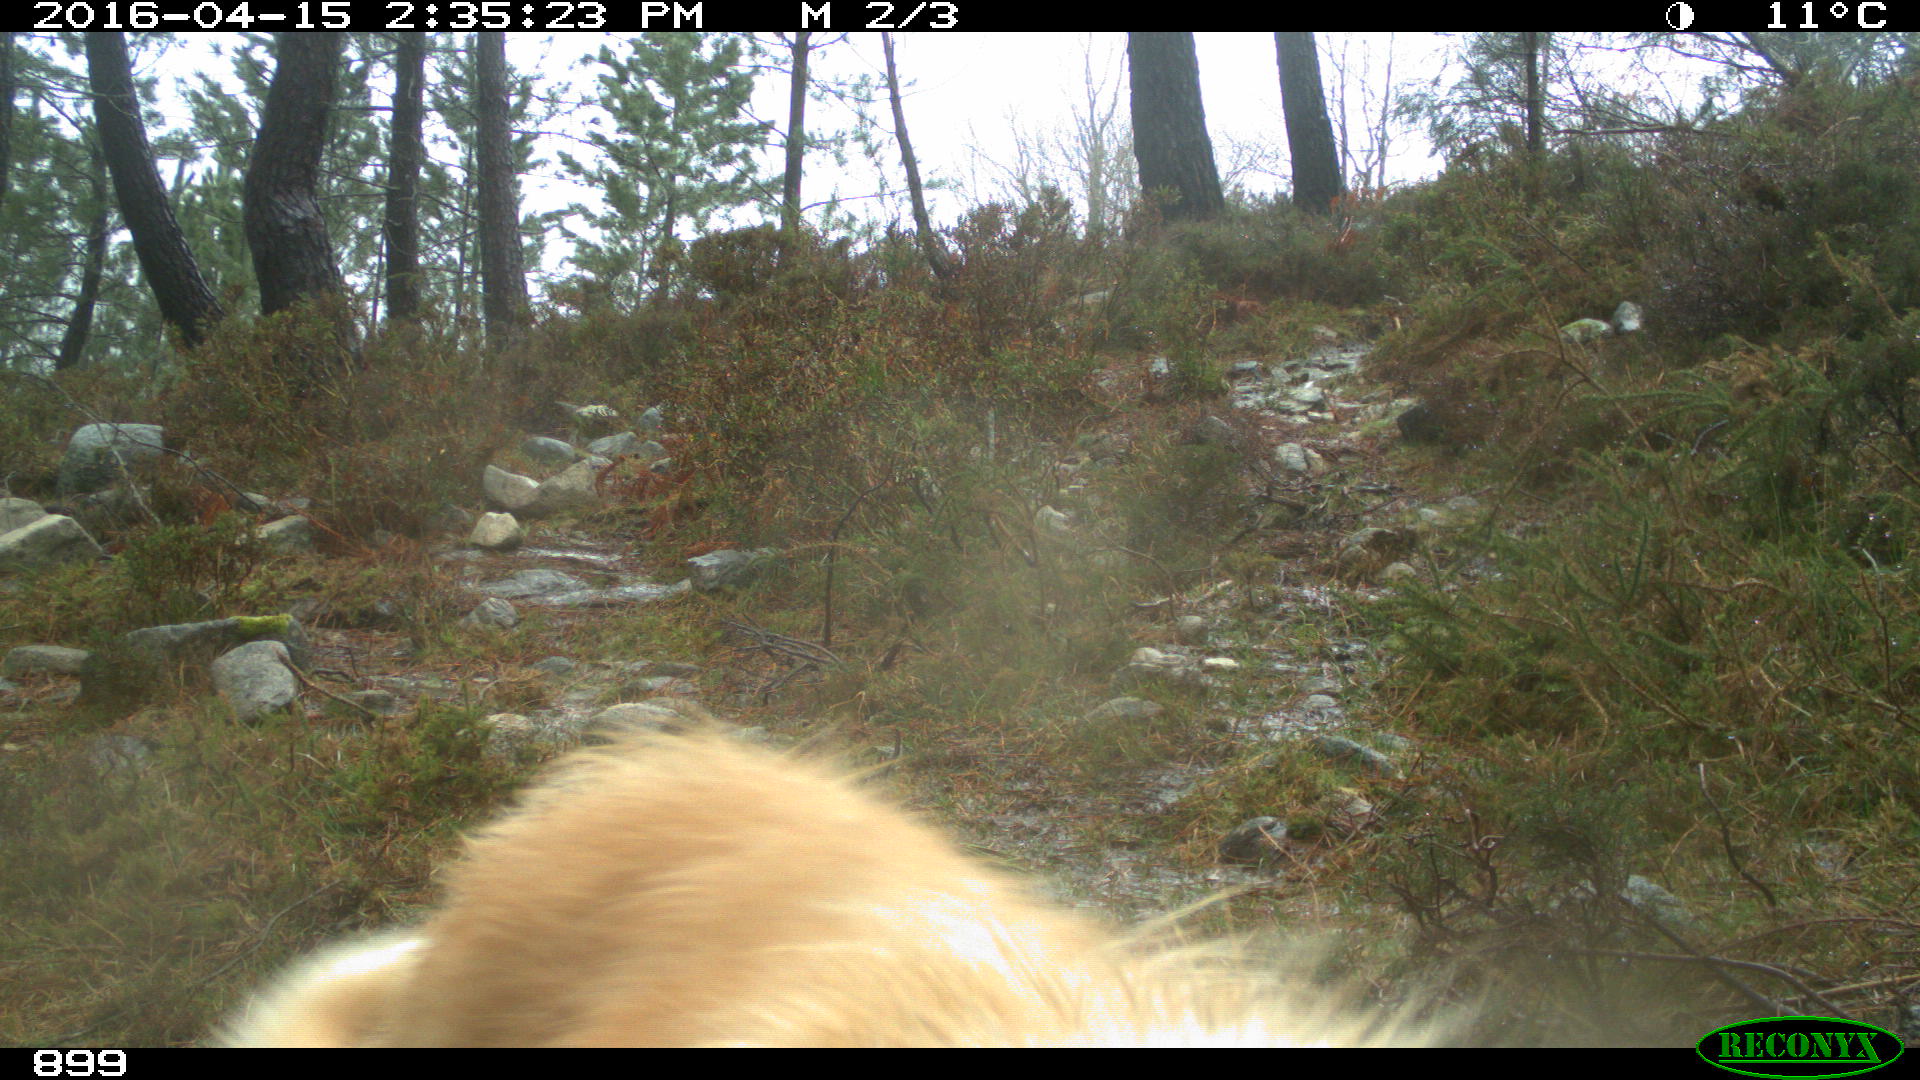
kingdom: Animalia
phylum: Chordata
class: Mammalia
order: Carnivora
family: Canidae
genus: Canis
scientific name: Canis lupus
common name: Gray wolf
